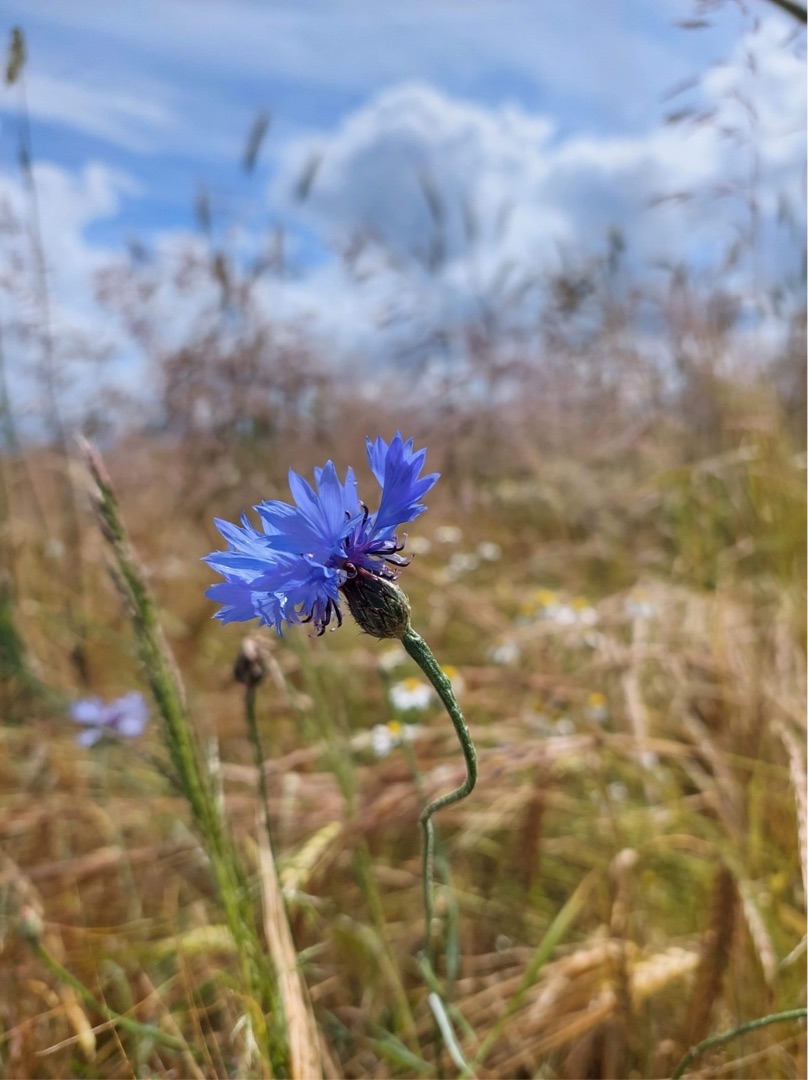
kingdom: Plantae
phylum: Tracheophyta
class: Magnoliopsida
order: Asterales
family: Asteraceae
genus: Centaurea
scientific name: Centaurea cyanus
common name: Kornblomst
